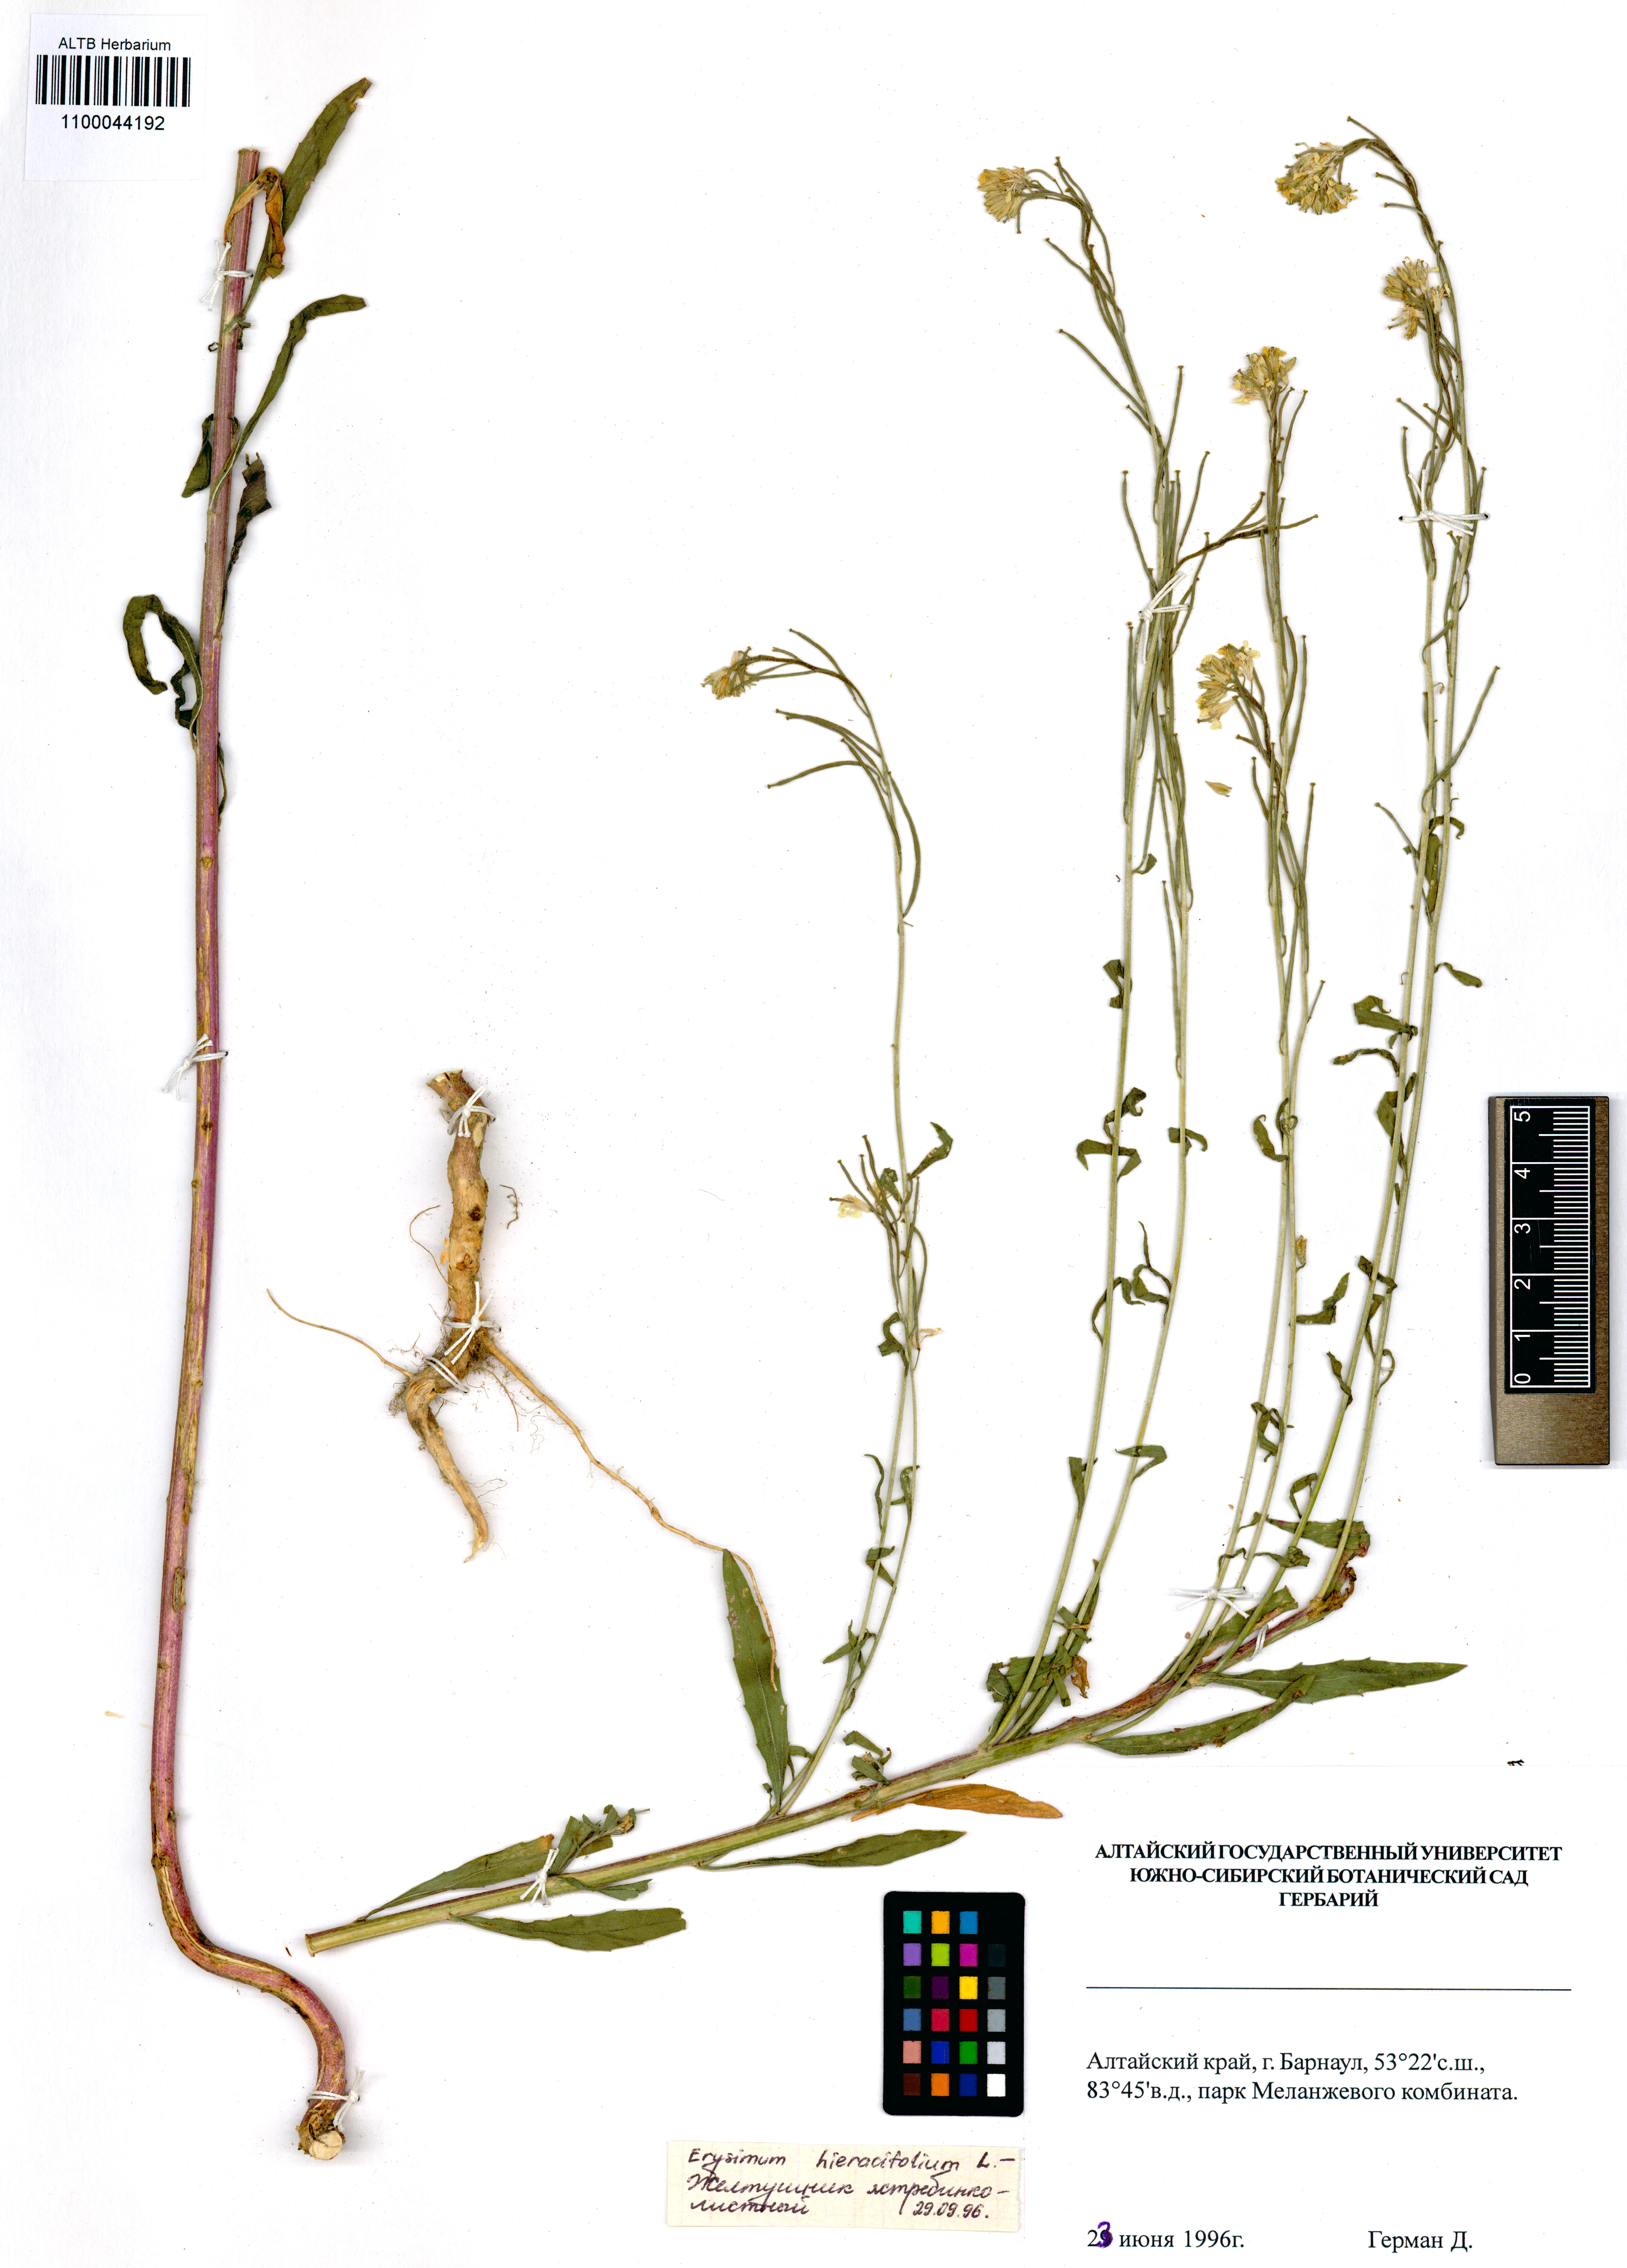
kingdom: Plantae
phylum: Tracheophyta
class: Magnoliopsida
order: Brassicales
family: Brassicaceae
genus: Erysimum
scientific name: Erysimum hieraciifolium
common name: European wallflower
